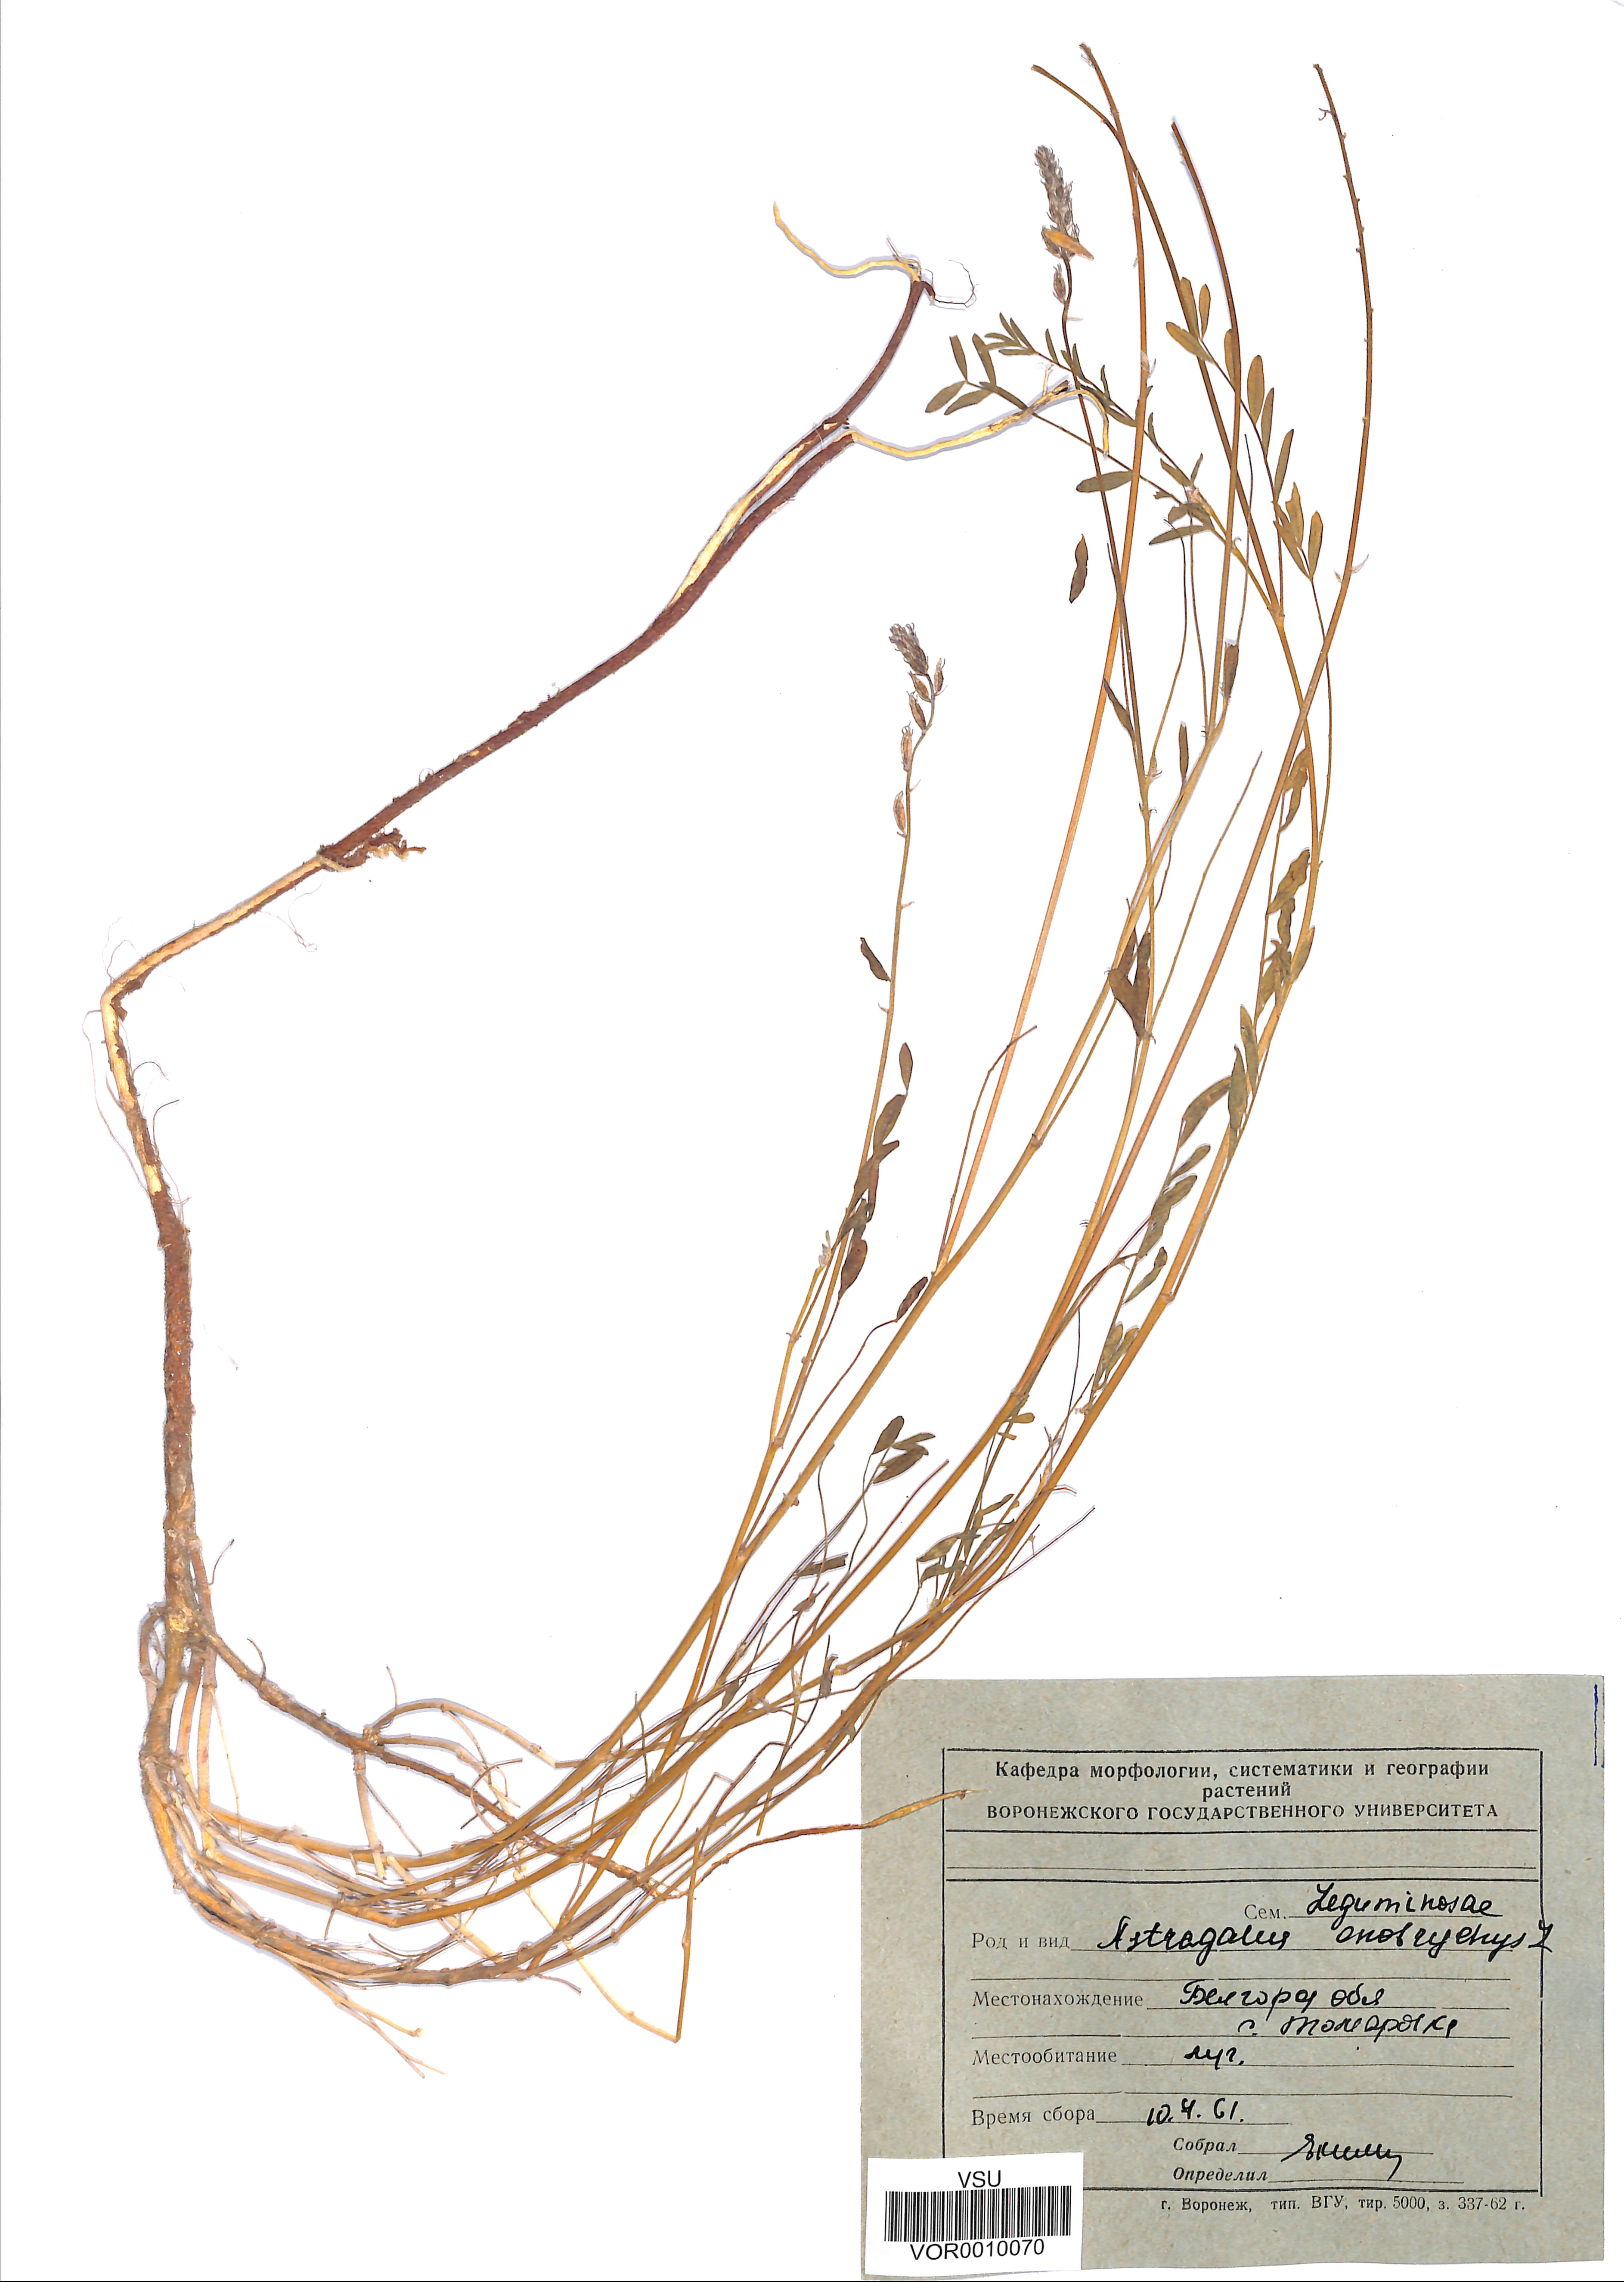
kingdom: Plantae
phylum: Tracheophyta
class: Magnoliopsida
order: Fabales
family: Fabaceae
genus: Astragalus
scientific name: Astragalus onobrychis
